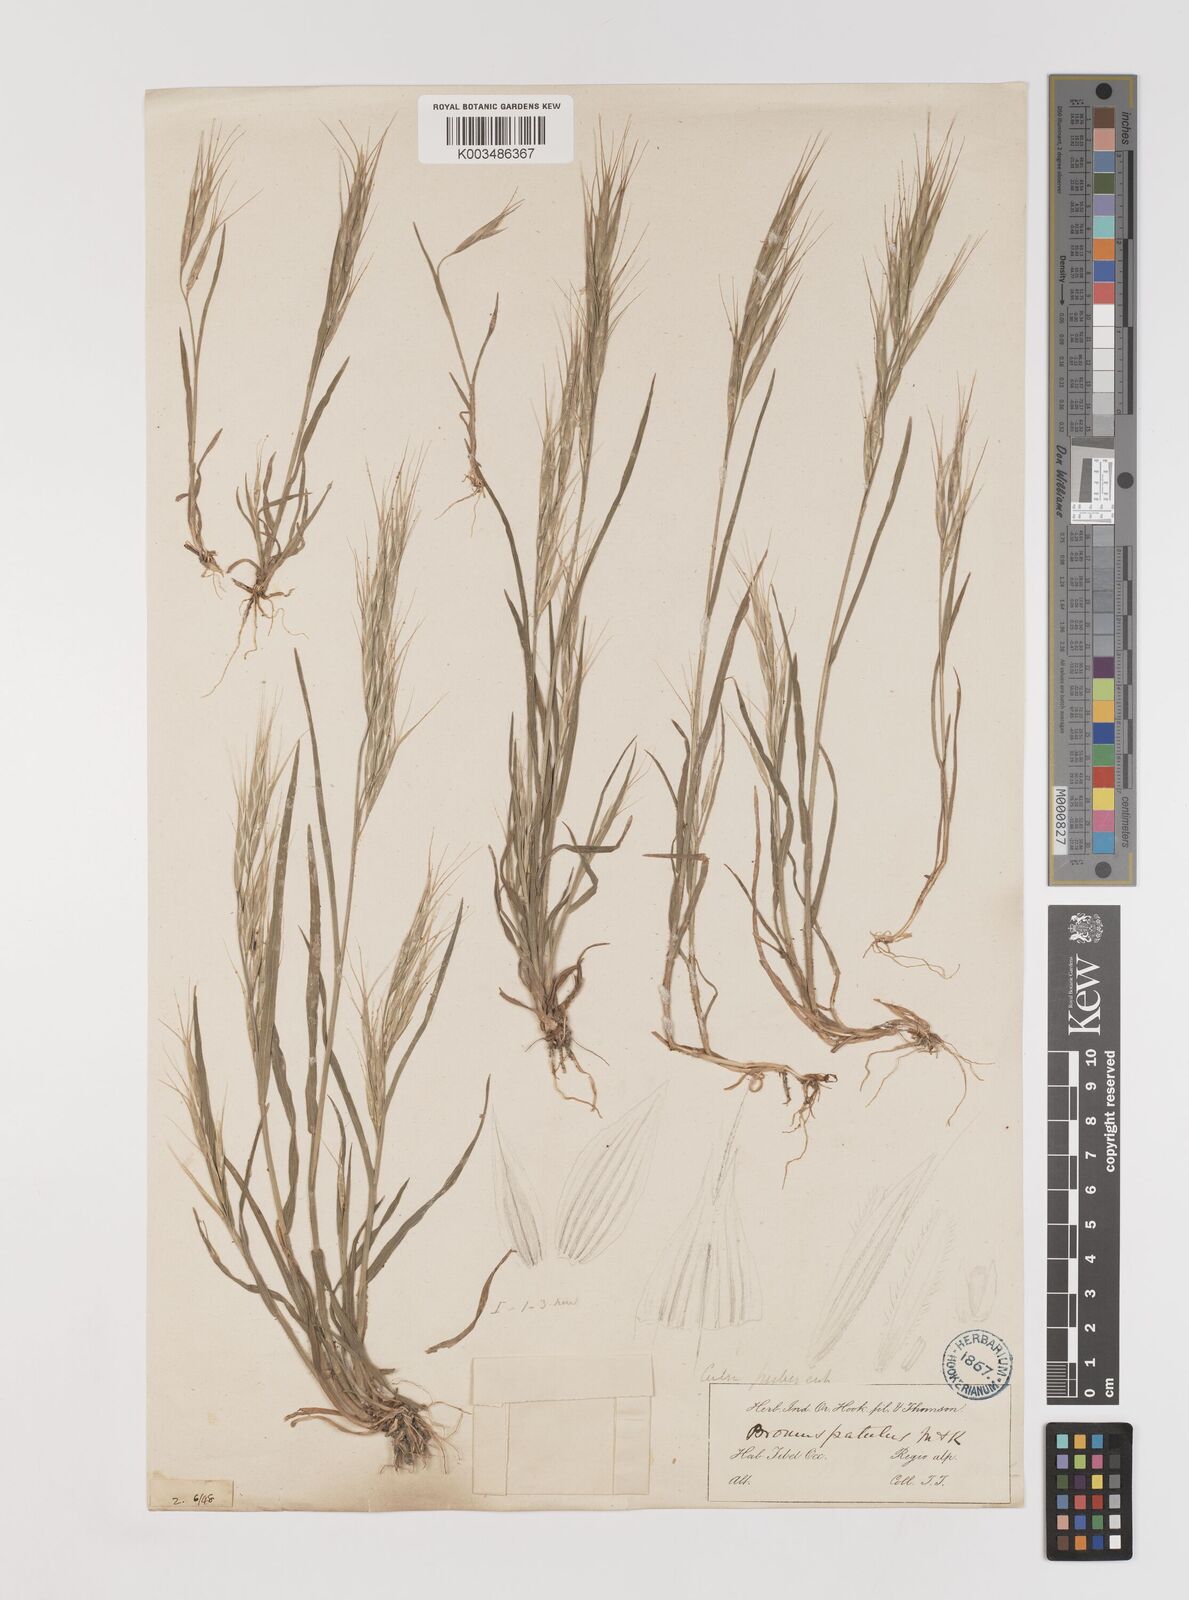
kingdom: Plantae
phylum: Tracheophyta
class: Liliopsida
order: Poales
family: Poaceae
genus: Bromus
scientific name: Bromus oxyodon
